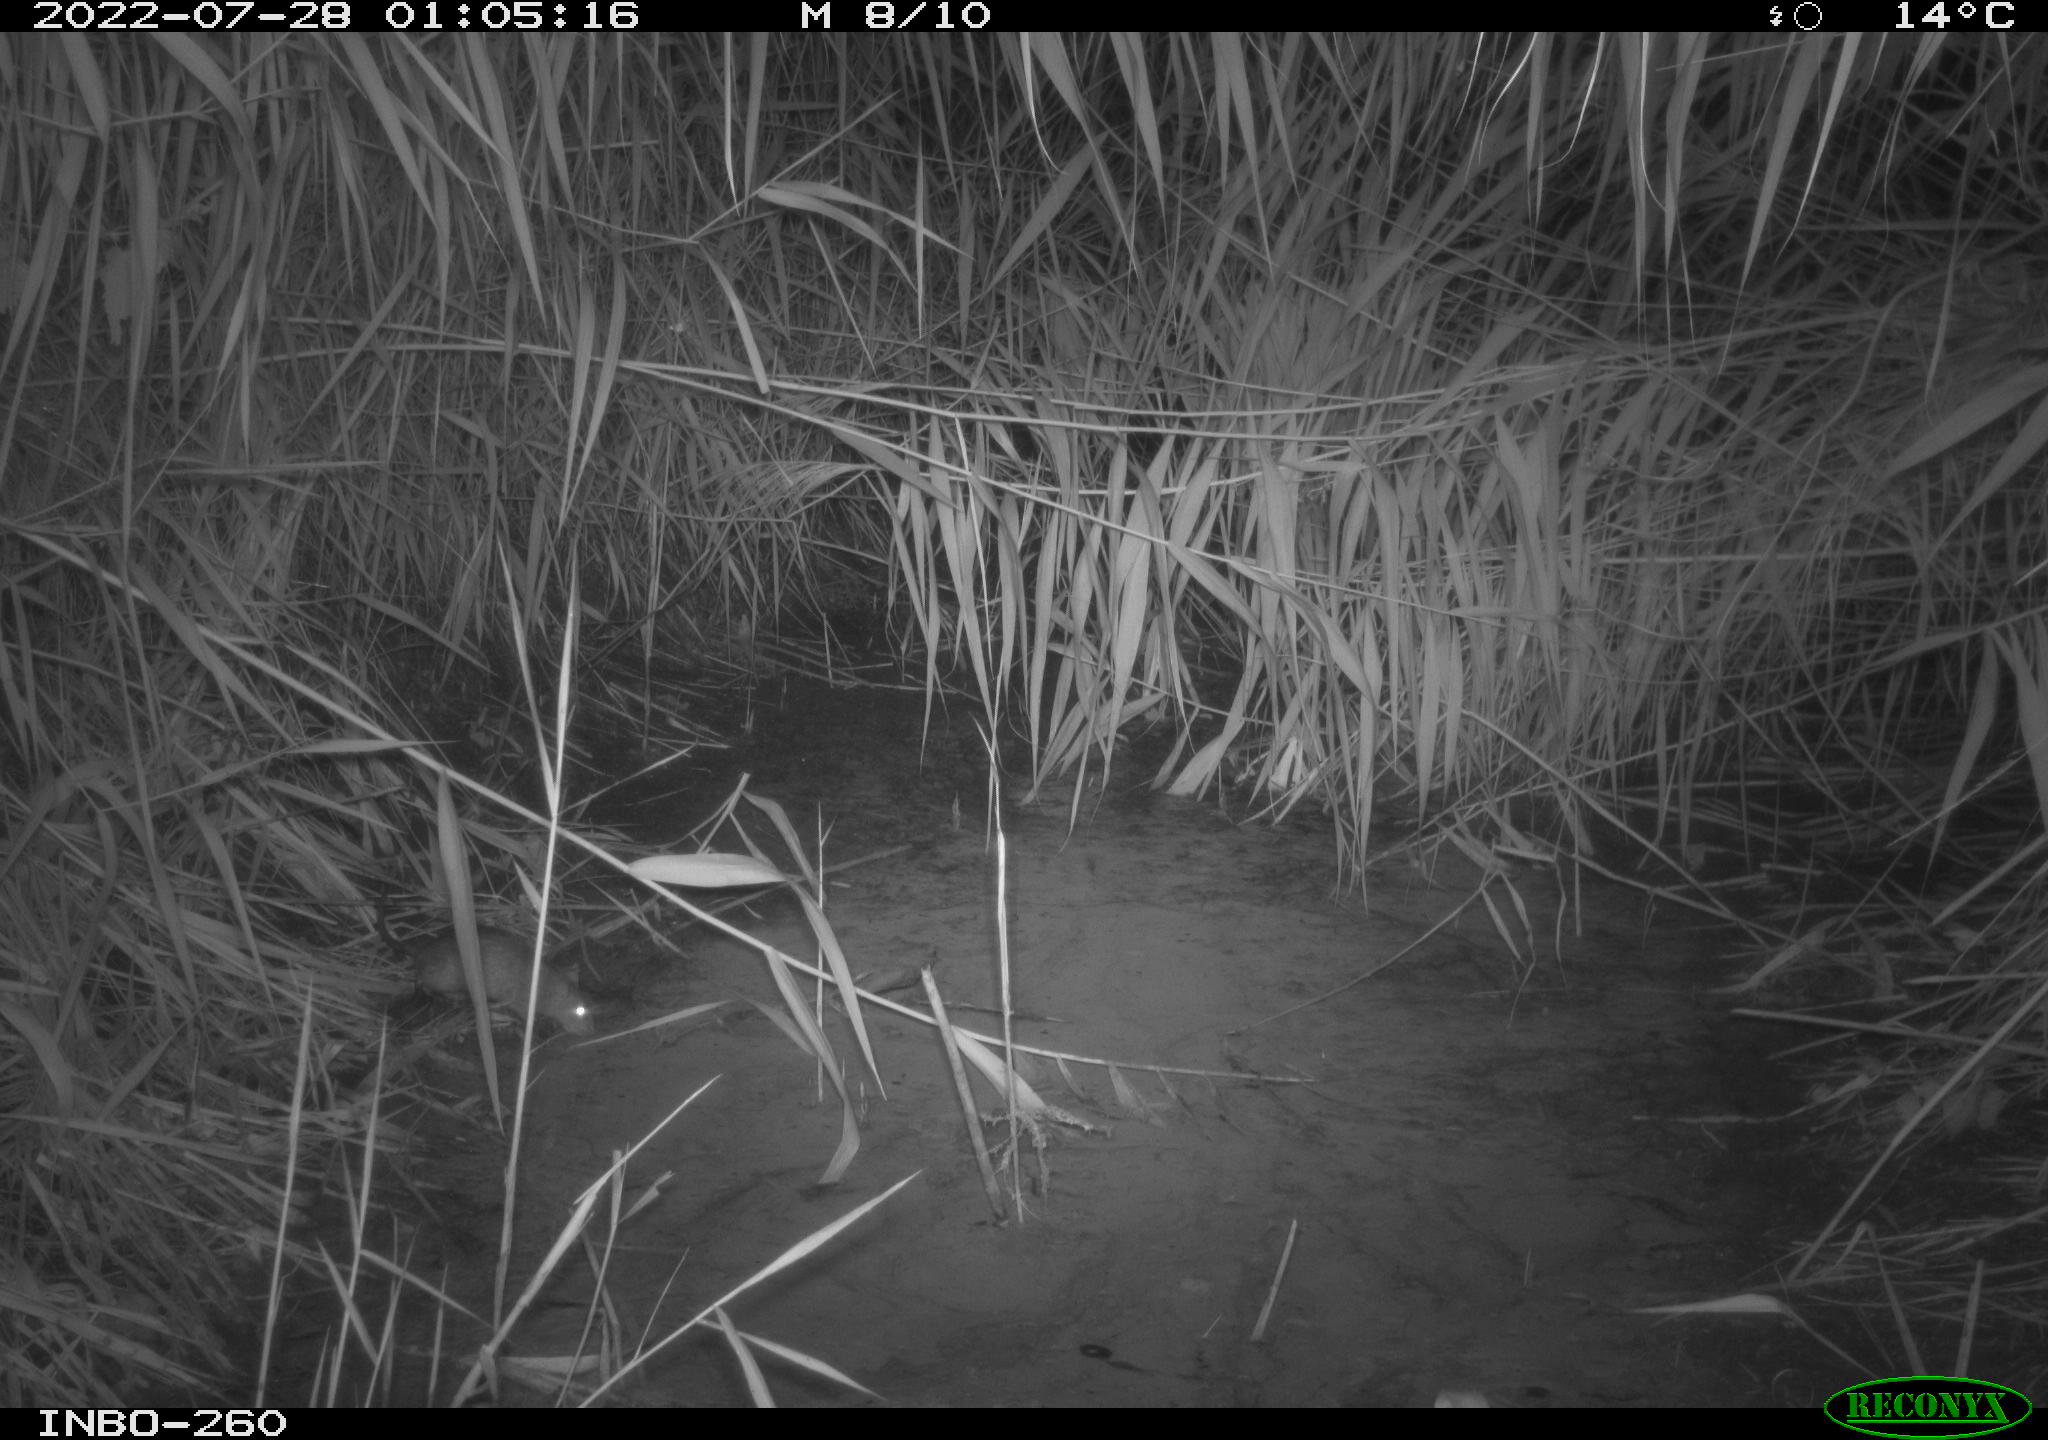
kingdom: Animalia
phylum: Chordata
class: Mammalia
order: Rodentia
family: Muridae
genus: Rattus
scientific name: Rattus norvegicus
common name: Brown rat
